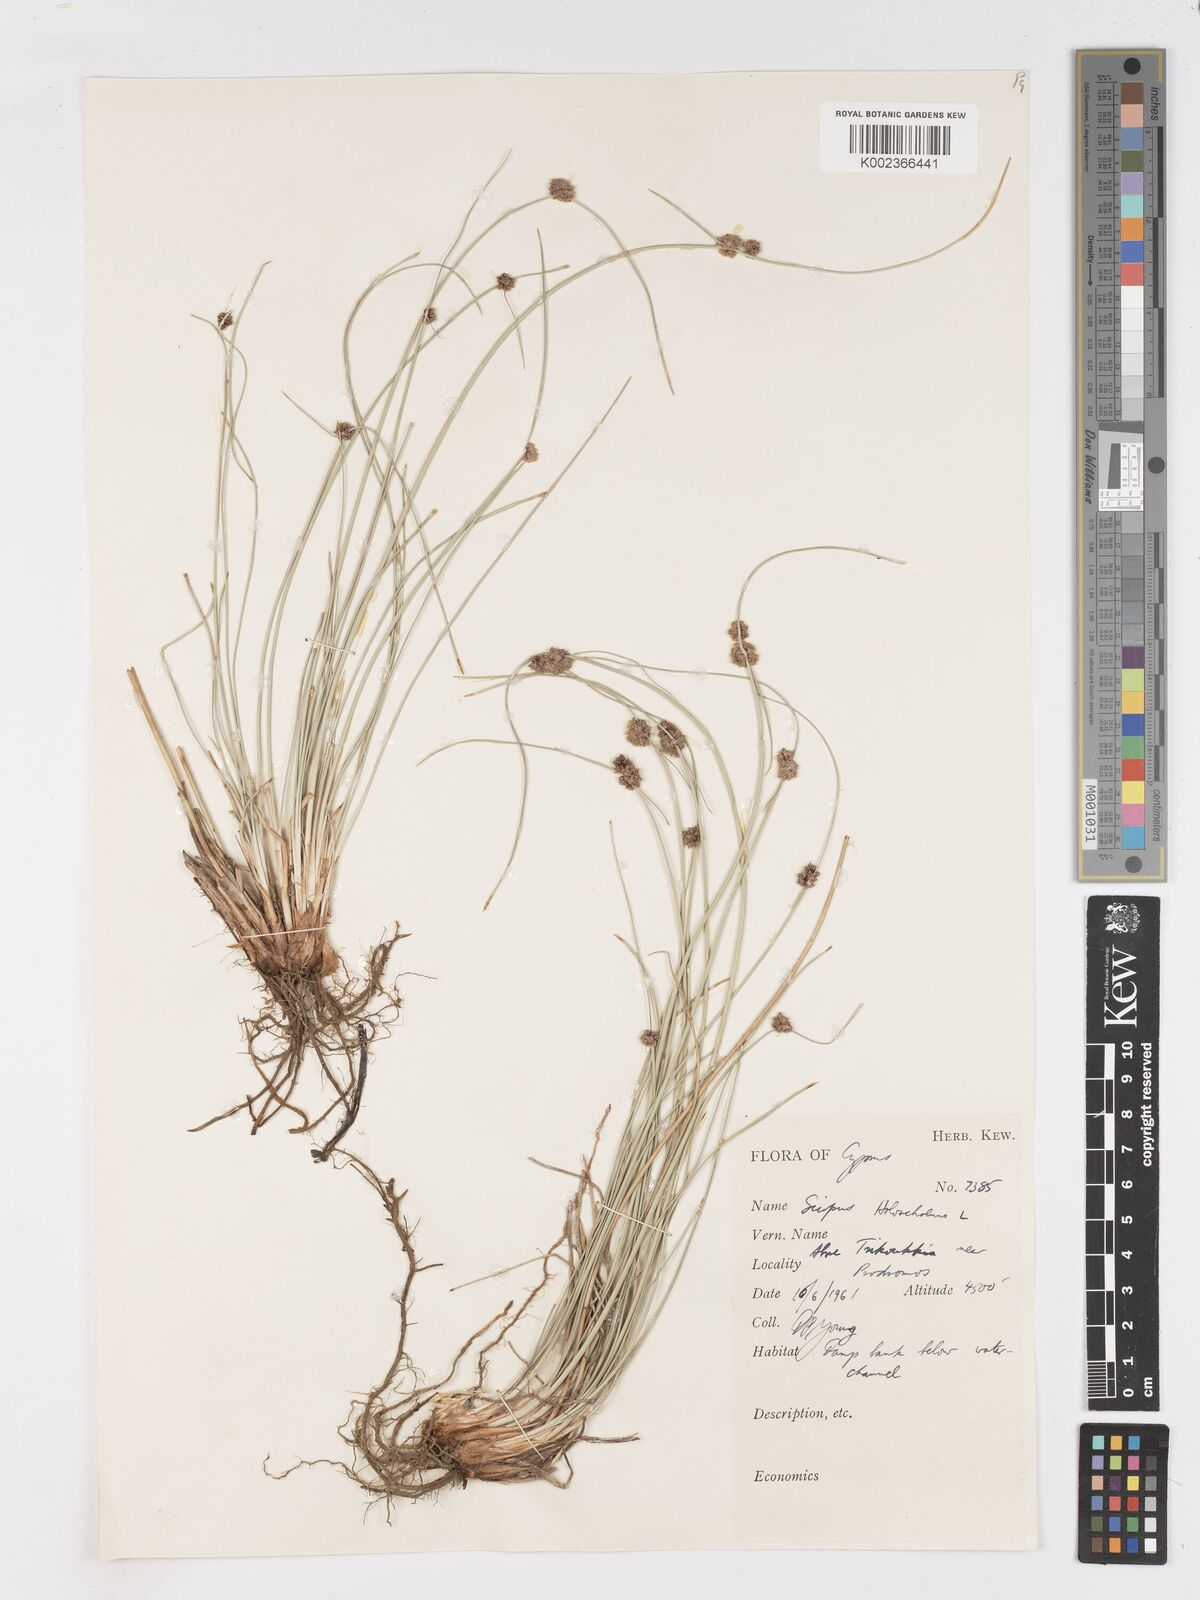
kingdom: Plantae
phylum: Tracheophyta
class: Liliopsida
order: Poales
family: Cyperaceae
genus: Scirpoides
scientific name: Scirpoides holoschoenus
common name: Round-headed club-rush
